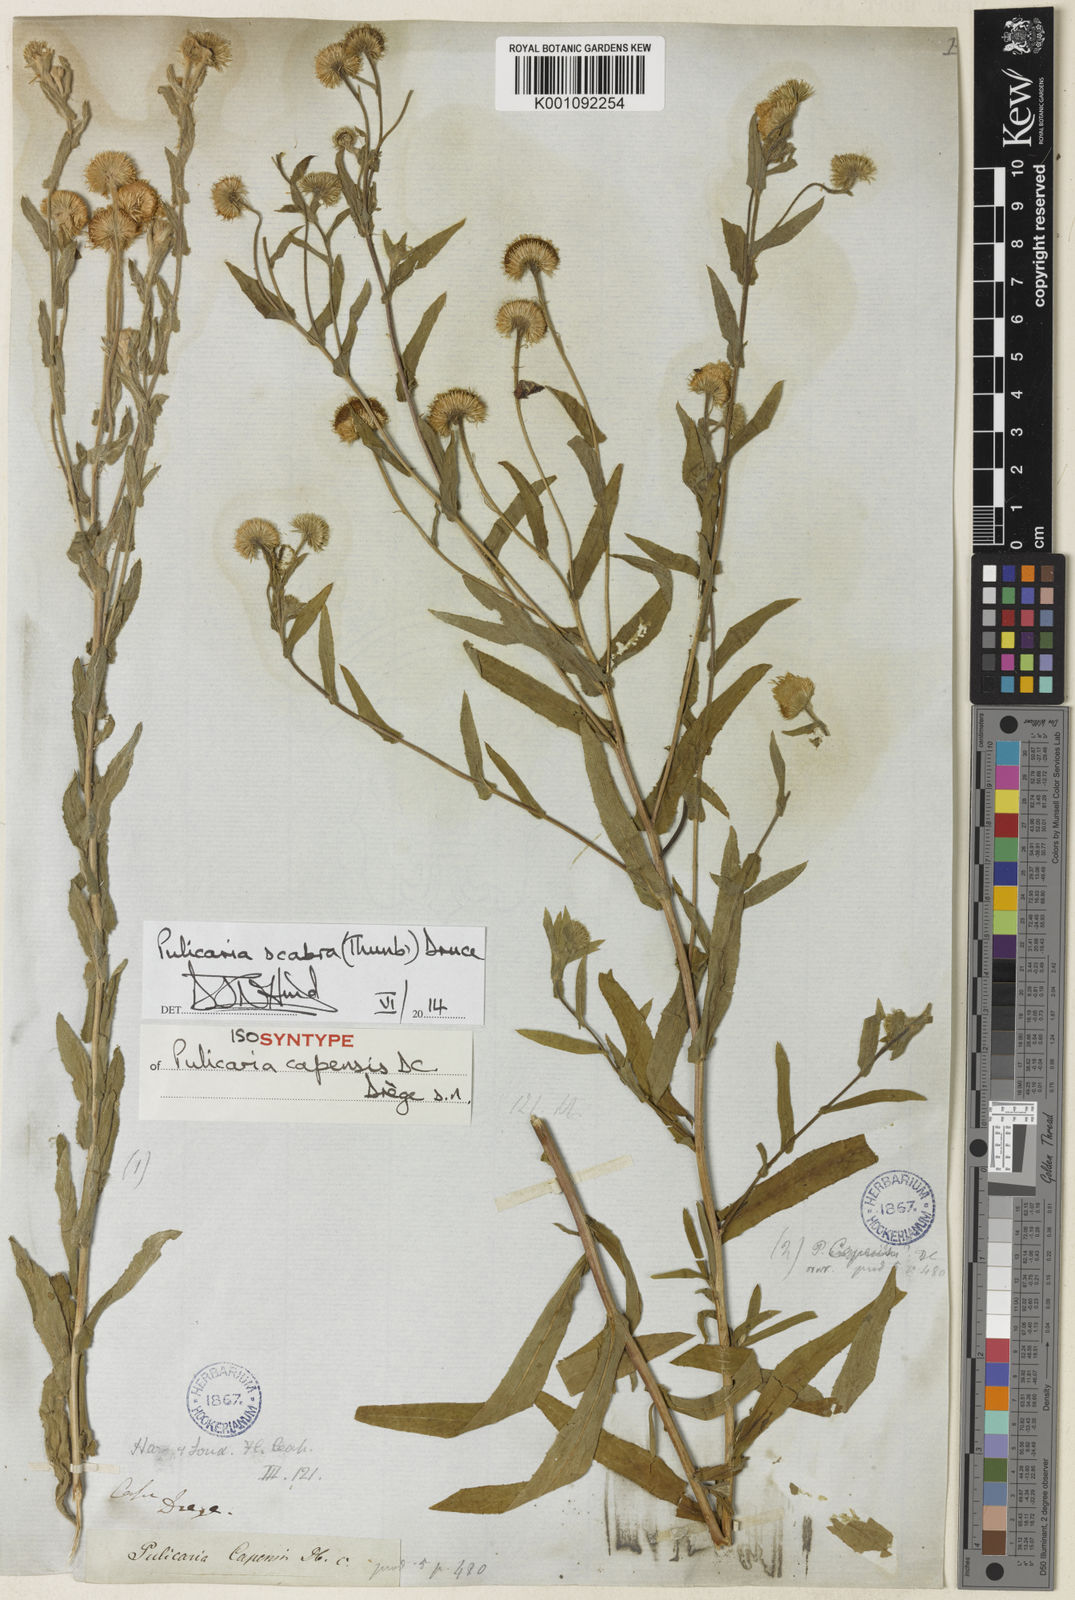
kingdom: Plantae
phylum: Tracheophyta
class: Magnoliopsida
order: Asterales
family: Asteraceae
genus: Pulicaria
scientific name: Pulicaria scabra
